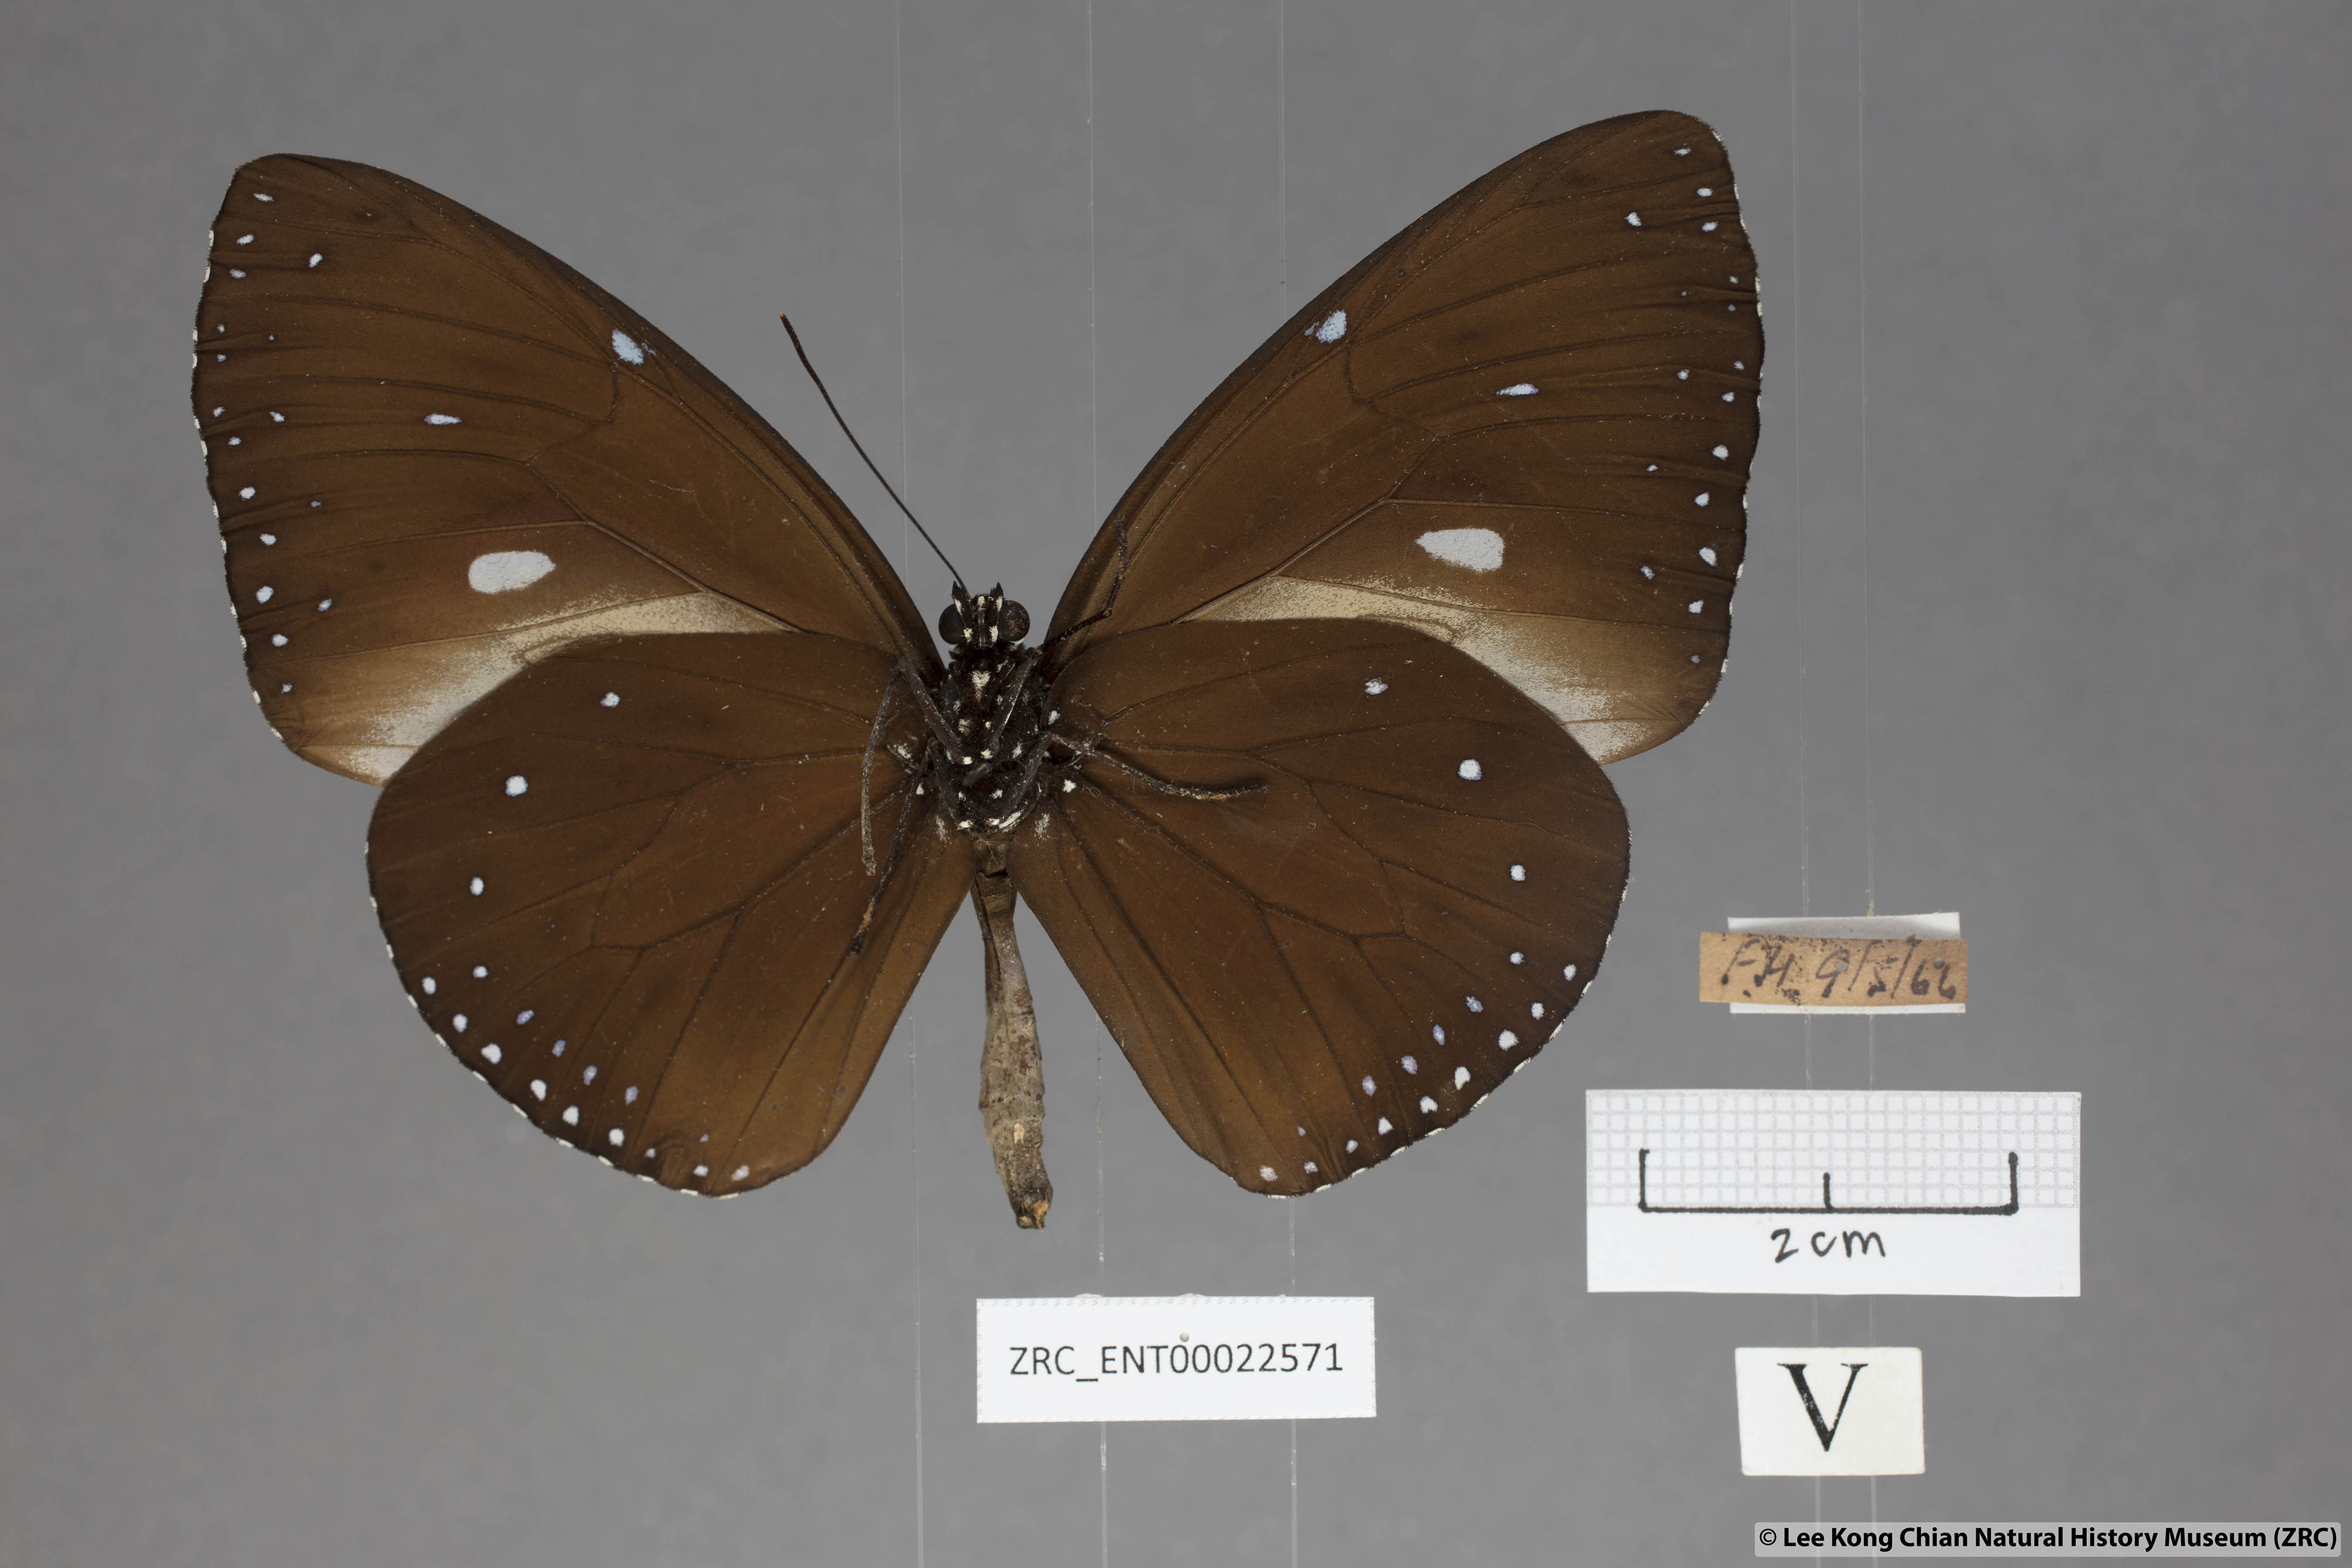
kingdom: Animalia
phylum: Arthropoda
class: Insecta
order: Lepidoptera
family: Nymphalidae
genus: Euploea
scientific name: Euploea eunice
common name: Blue-banded king crow butterfly
